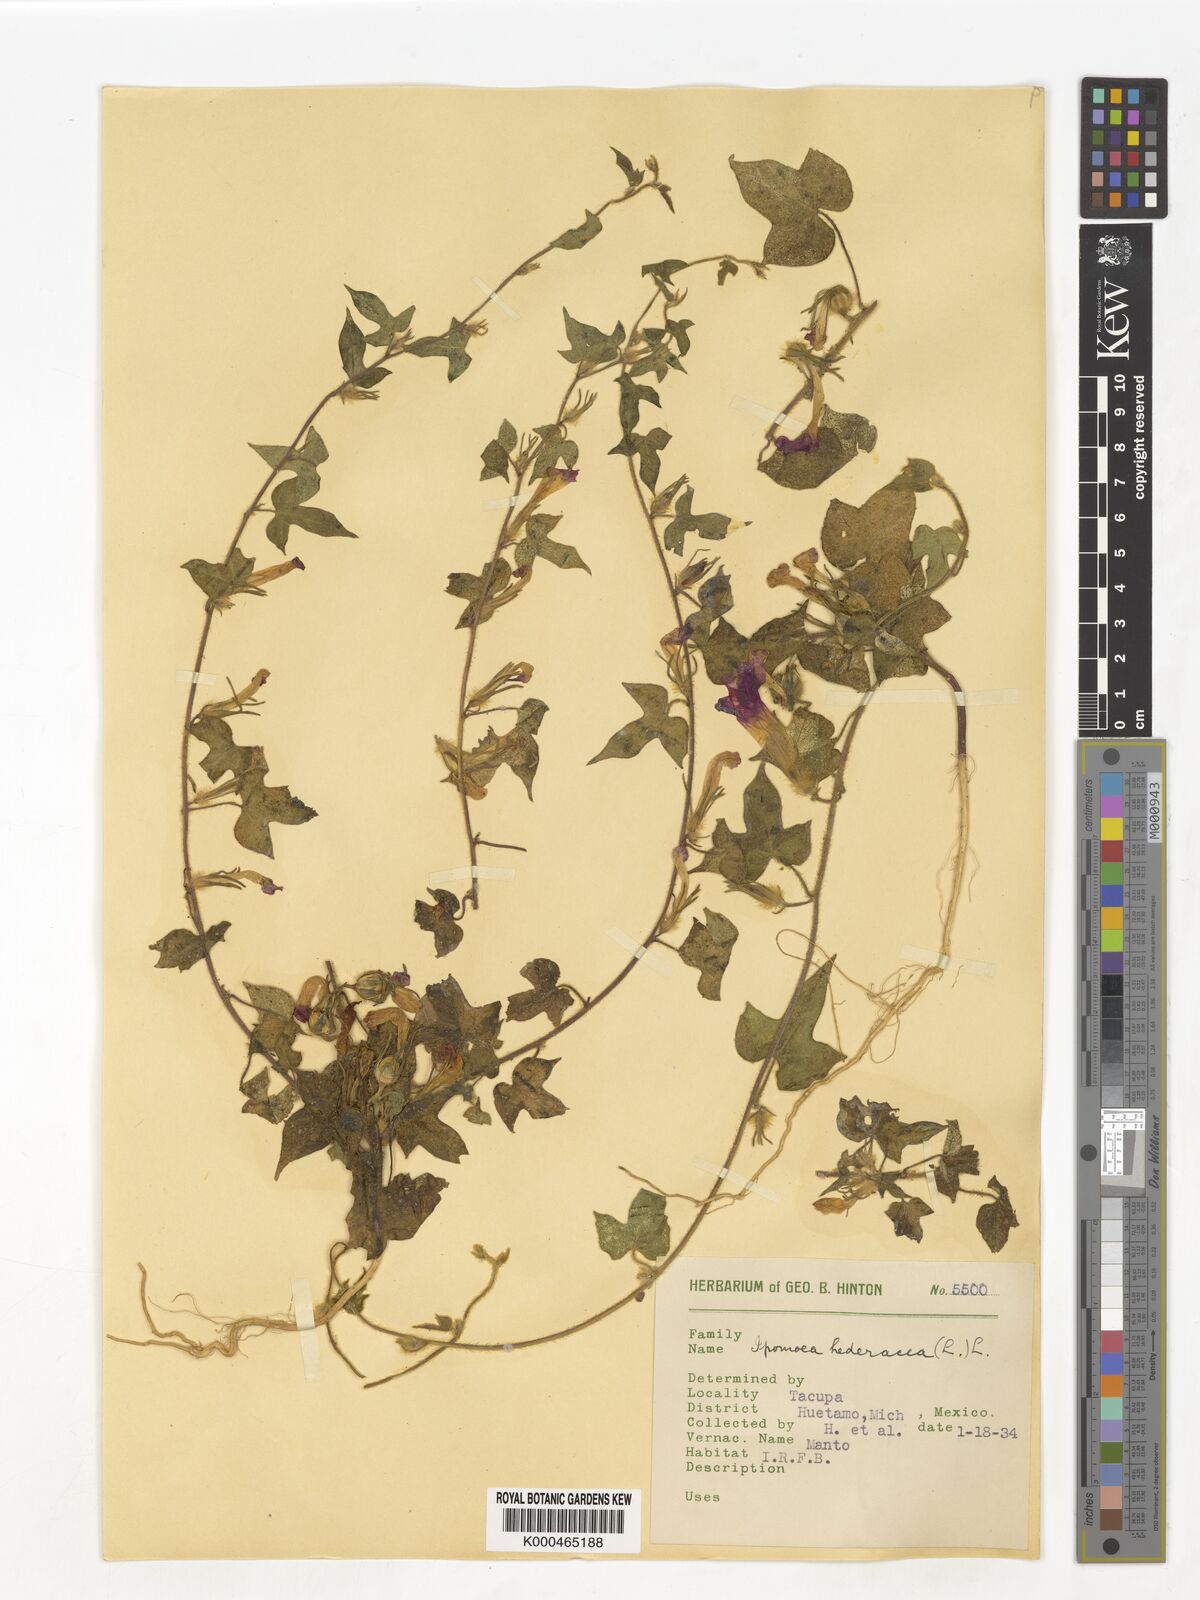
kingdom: Plantae
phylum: Tracheophyta
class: Magnoliopsida
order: Solanales
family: Convolvulaceae
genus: Ipomoea
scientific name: Ipomoea hederacea
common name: Ivy-leaved morning-glory
